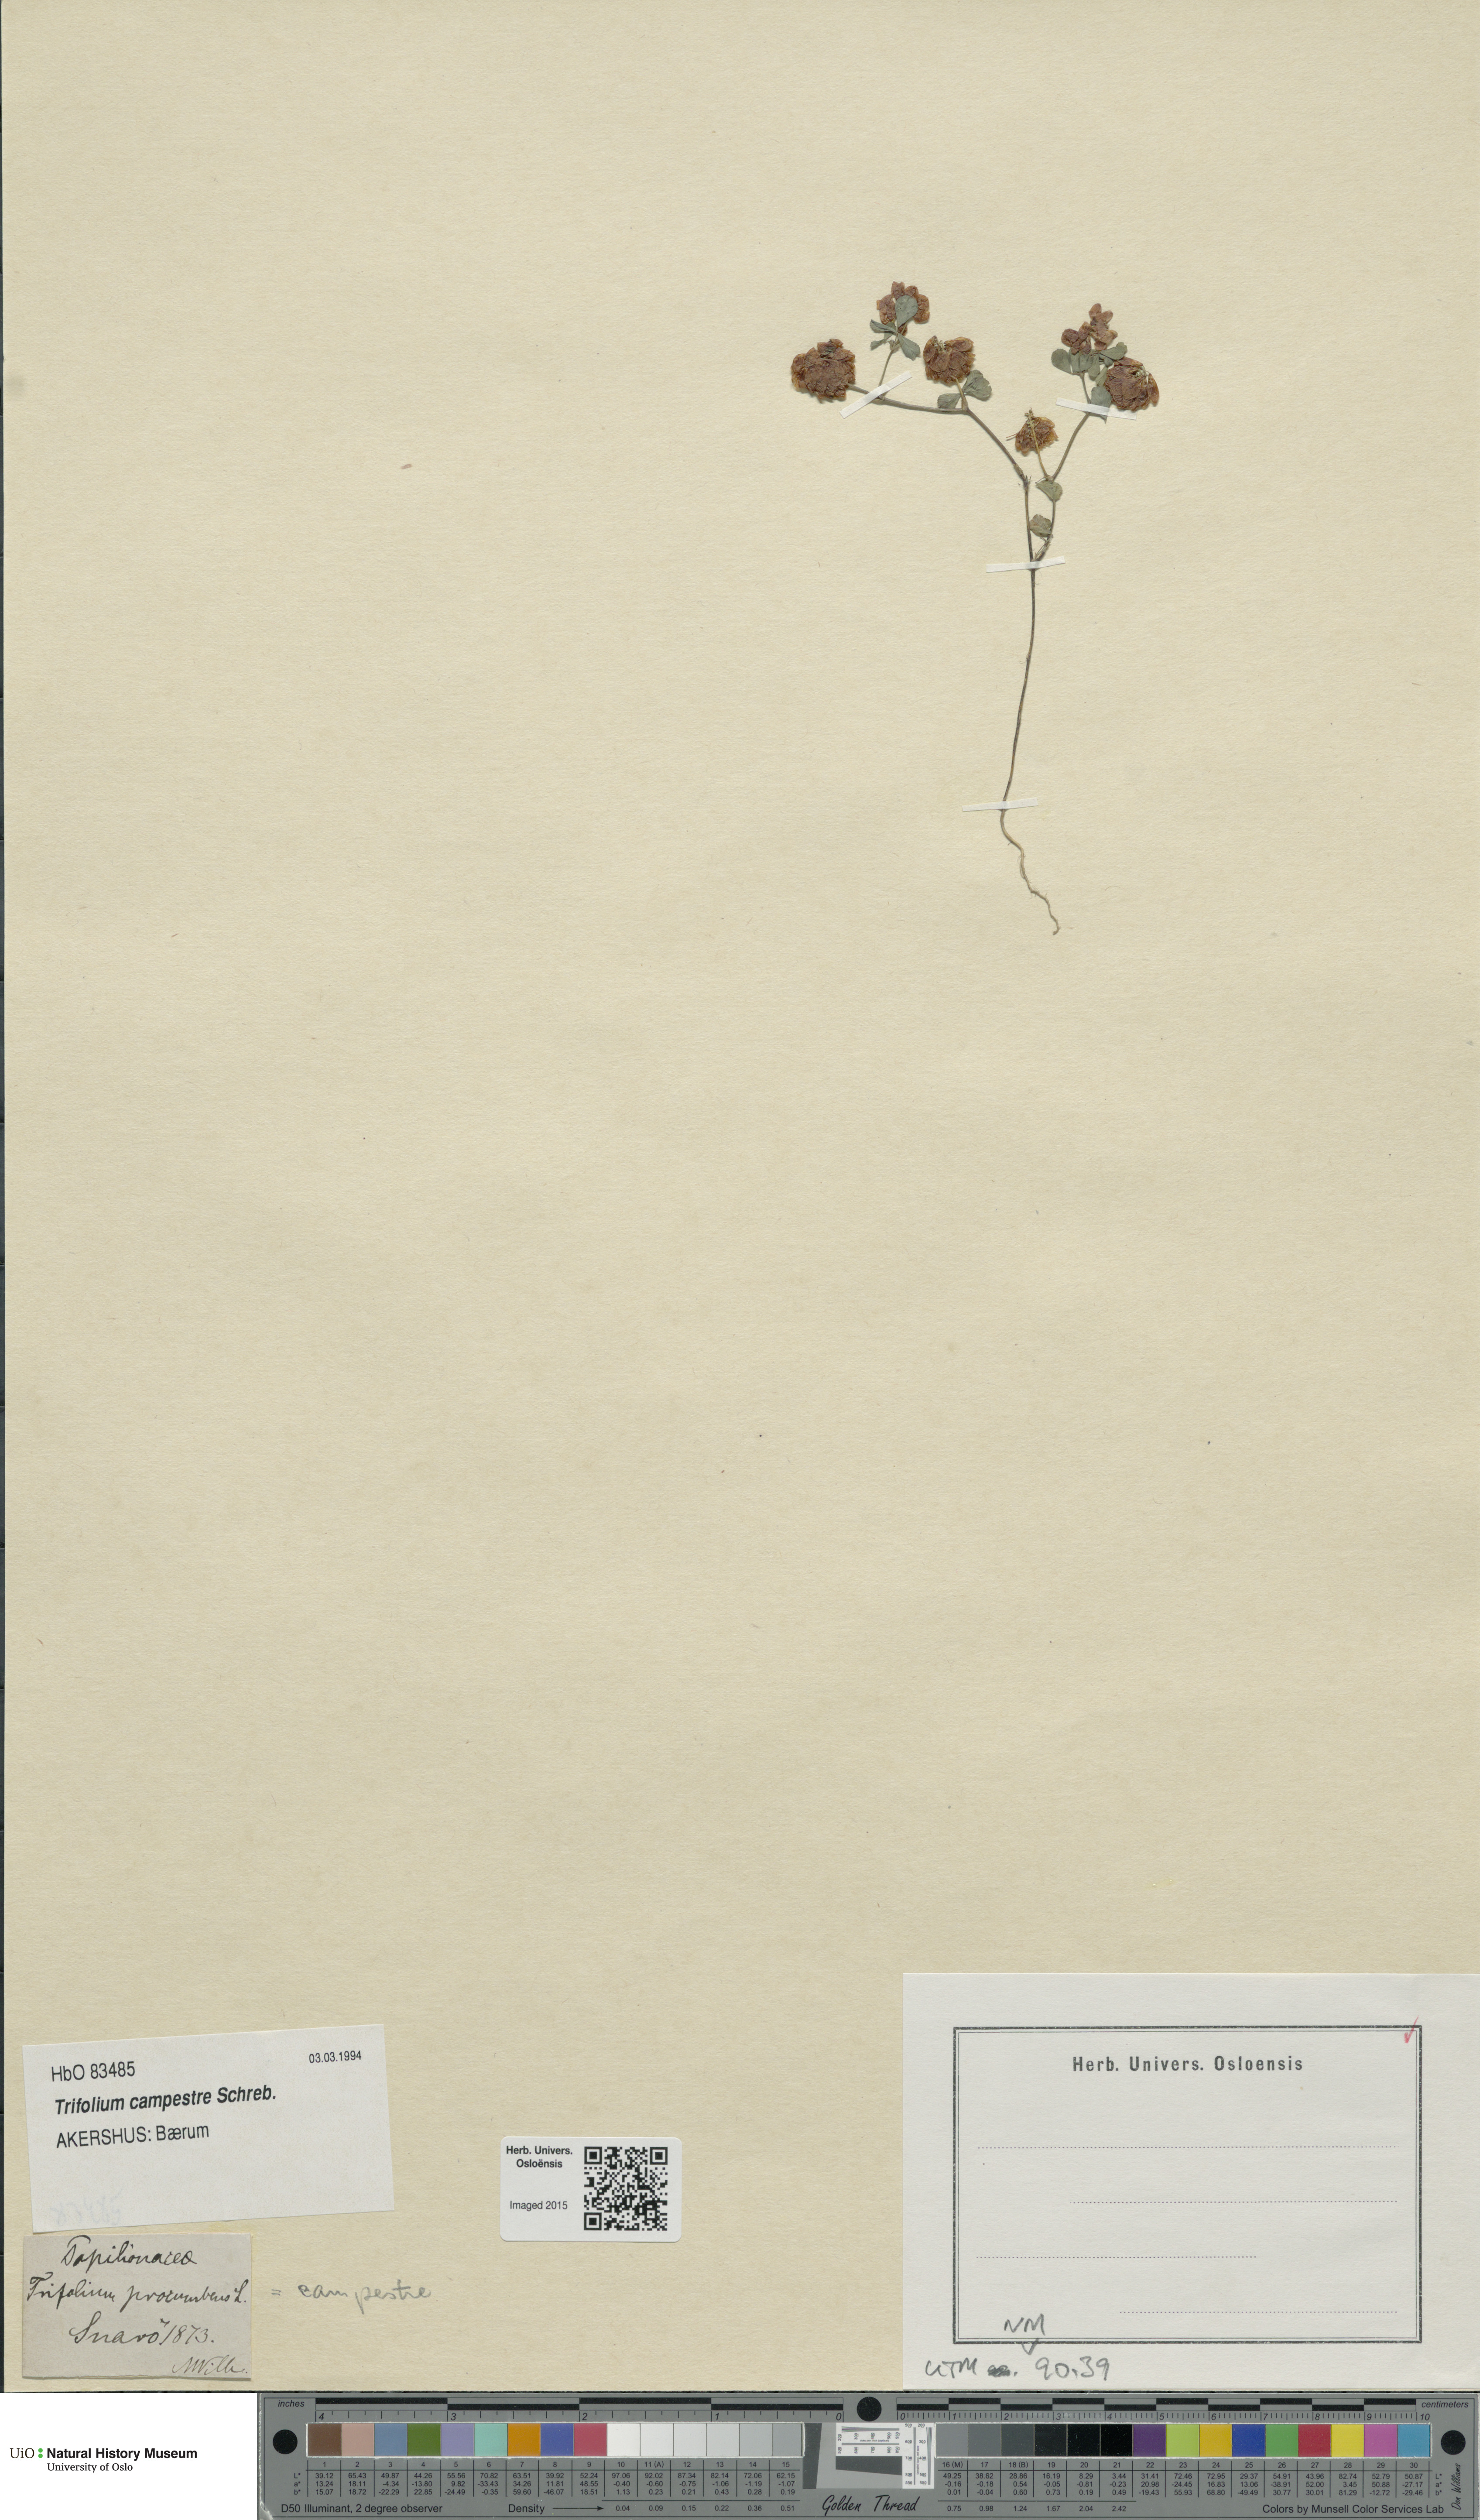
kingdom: Plantae
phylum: Tracheophyta
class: Magnoliopsida
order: Fabales
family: Fabaceae
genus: Trifolium
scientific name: Trifolium campestre
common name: Field clover
